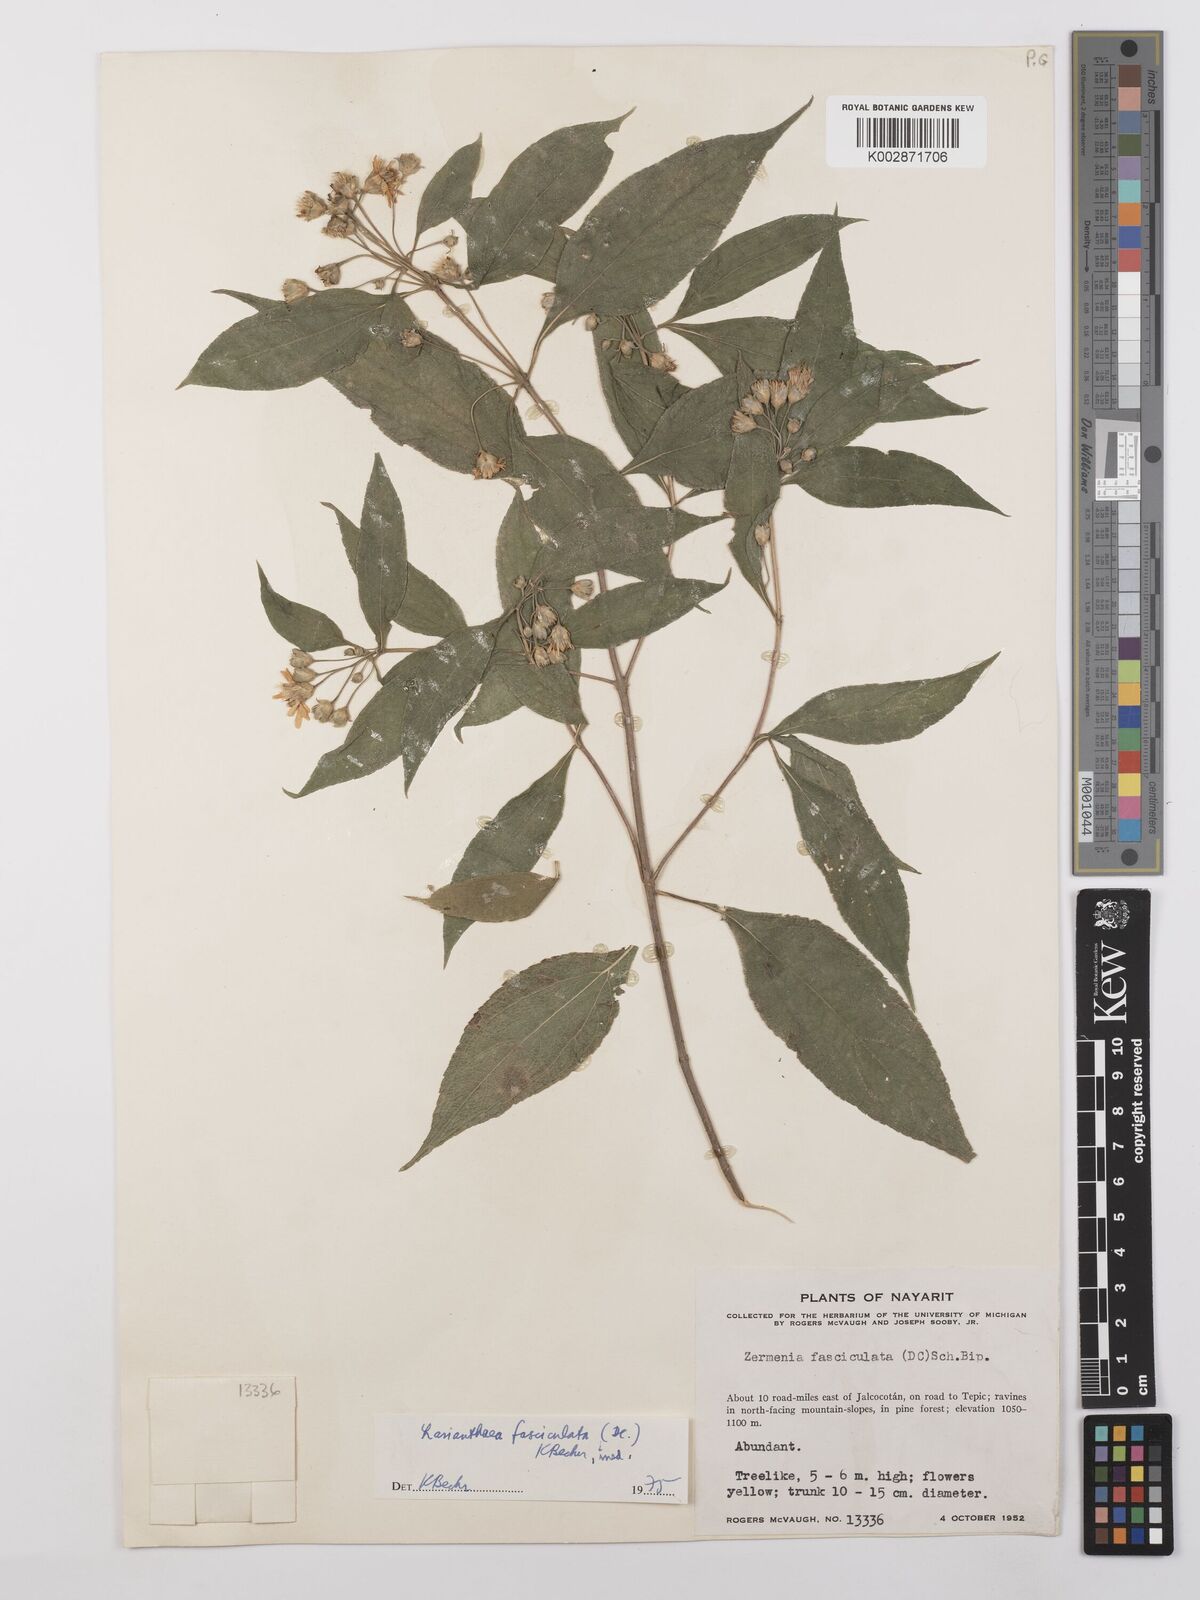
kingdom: Plantae
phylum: Tracheophyta
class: Magnoliopsida
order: Asterales
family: Asteraceae
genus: Lasianthaea
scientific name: Lasianthaea fruticosa
